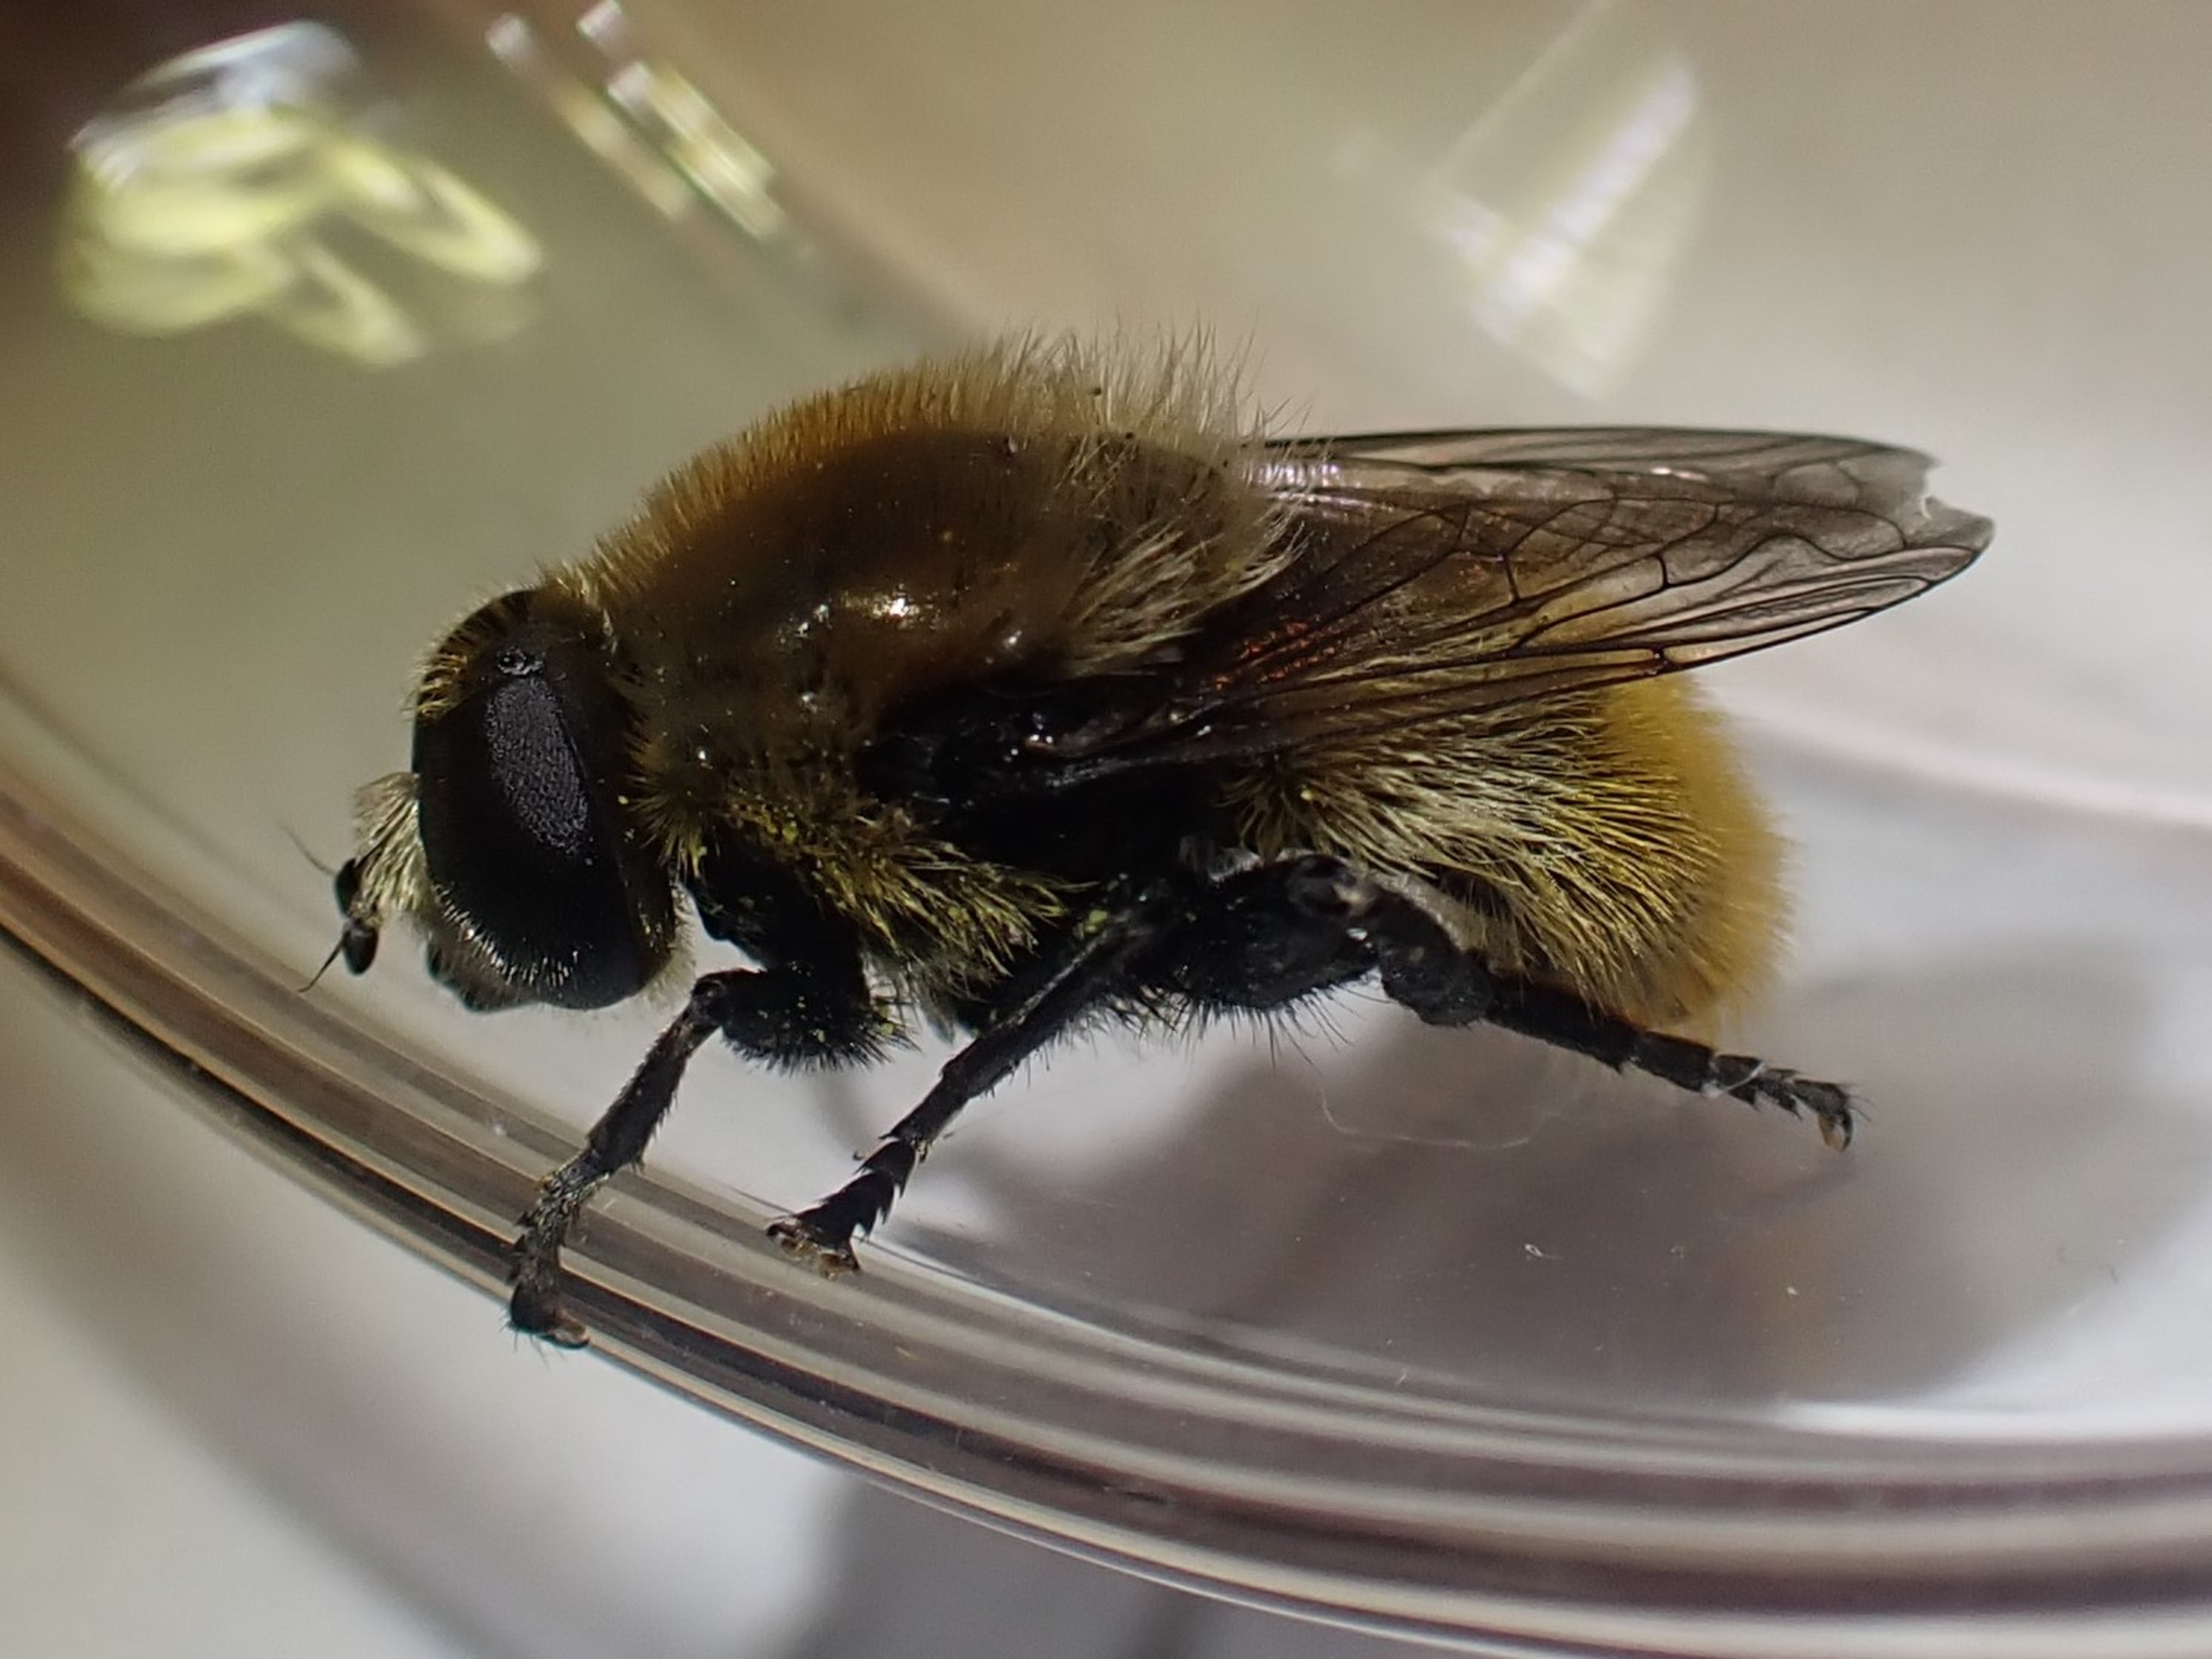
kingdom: Animalia
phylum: Arthropoda
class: Insecta
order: Diptera
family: Syrphidae
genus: Merodon
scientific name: Merodon equestris
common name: Stor narcisflue
